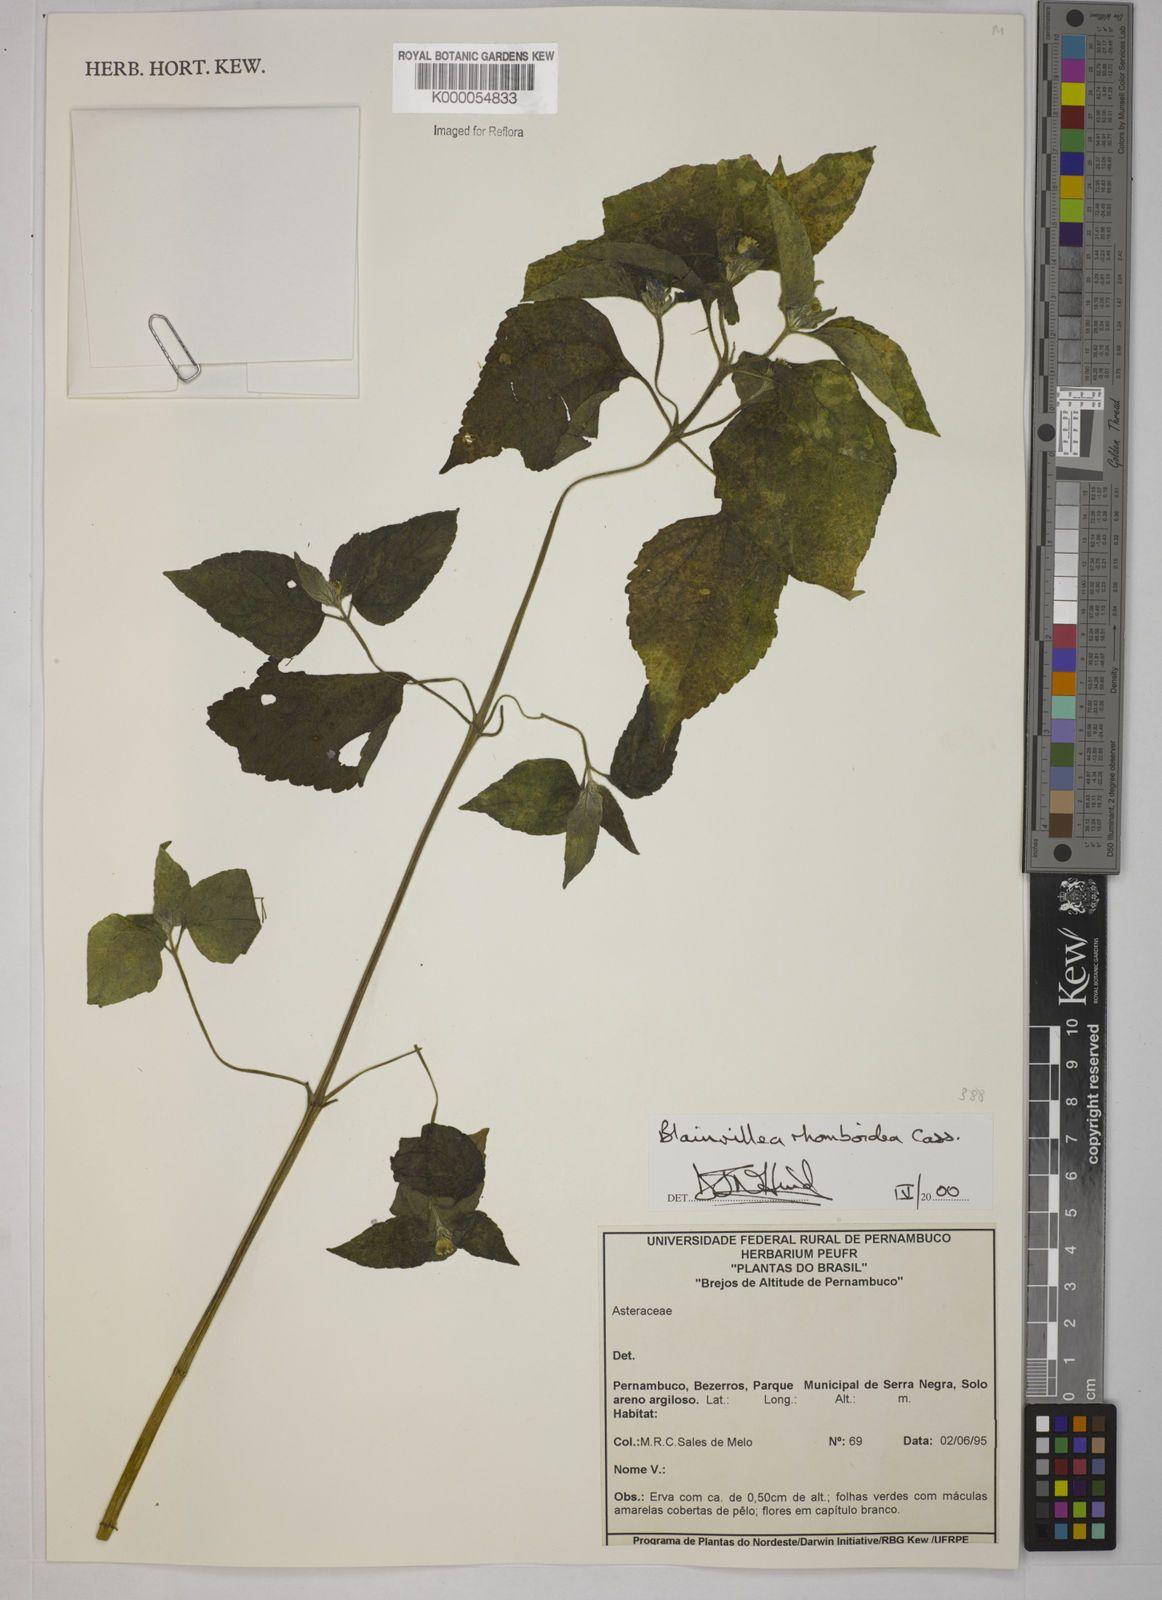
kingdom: Plantae
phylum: Tracheophyta
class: Magnoliopsida
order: Asterales
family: Asteraceae
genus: Blainvillea
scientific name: Blainvillea acmella
